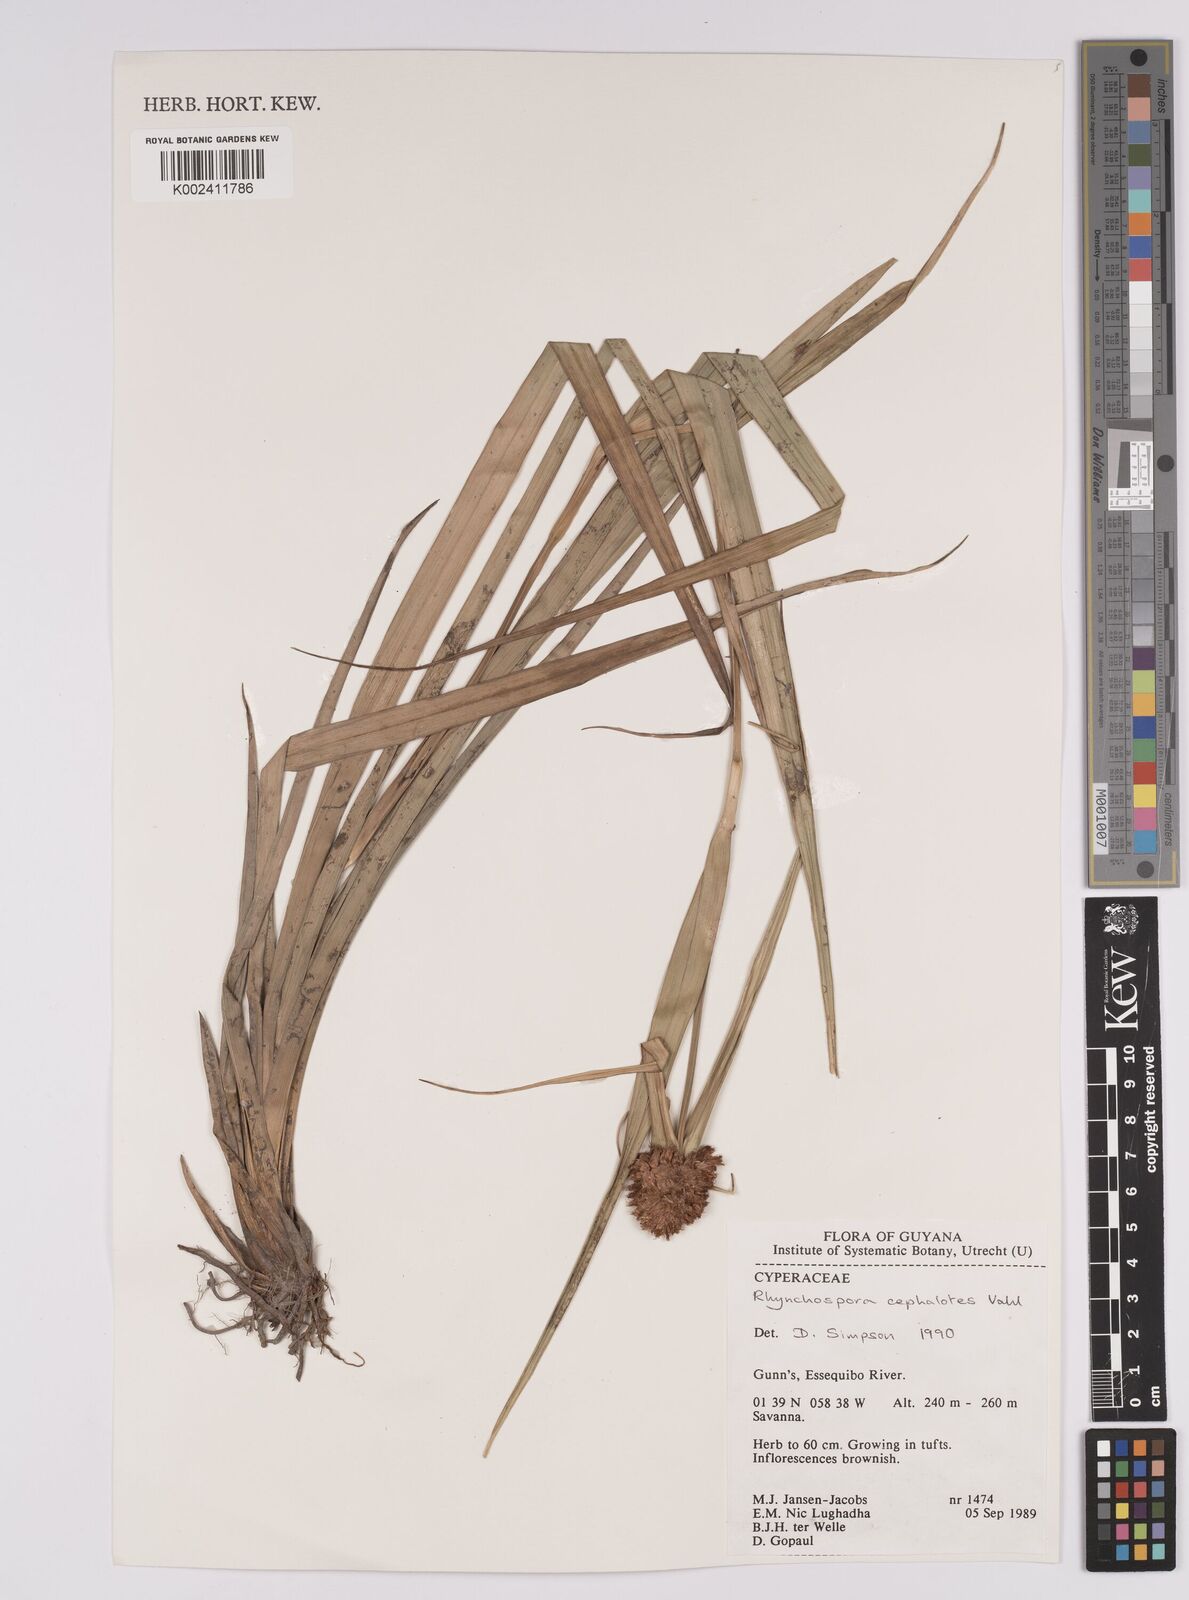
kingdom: Plantae
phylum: Tracheophyta
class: Liliopsida
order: Poales
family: Cyperaceae
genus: Rhynchospora
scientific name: Rhynchospora cephalotes
